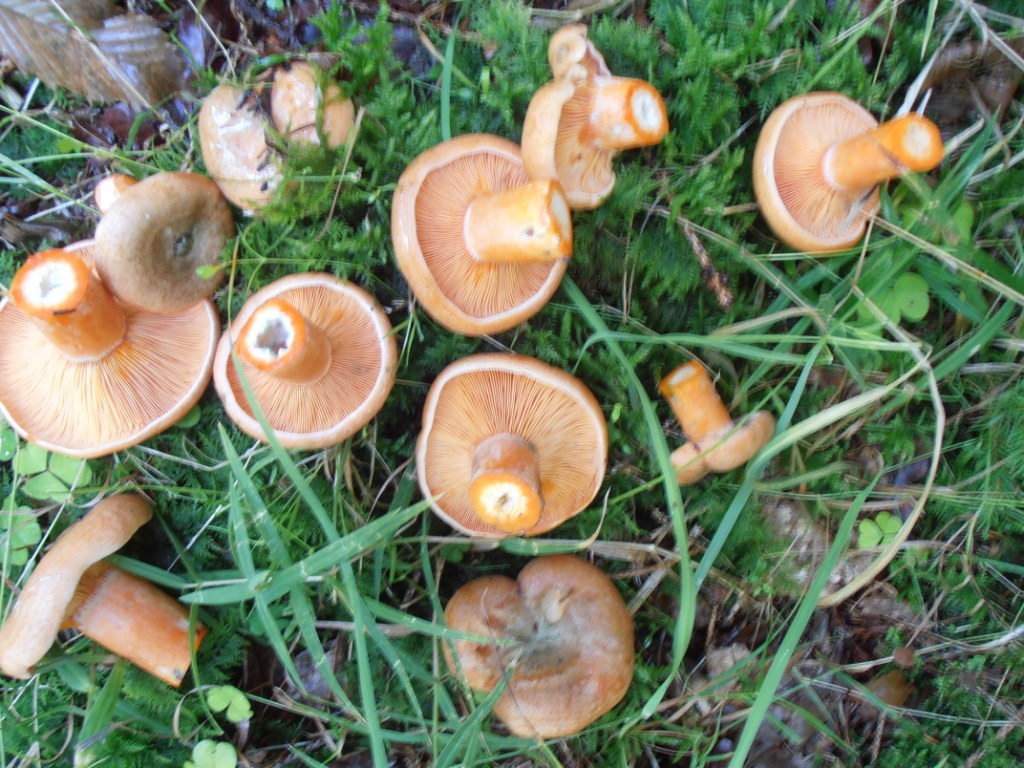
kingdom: Fungi
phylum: Basidiomycota
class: Agaricomycetes
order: Russulales
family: Russulaceae
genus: Lactarius
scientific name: Lactarius deterrimus
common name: gran-mælkehat
